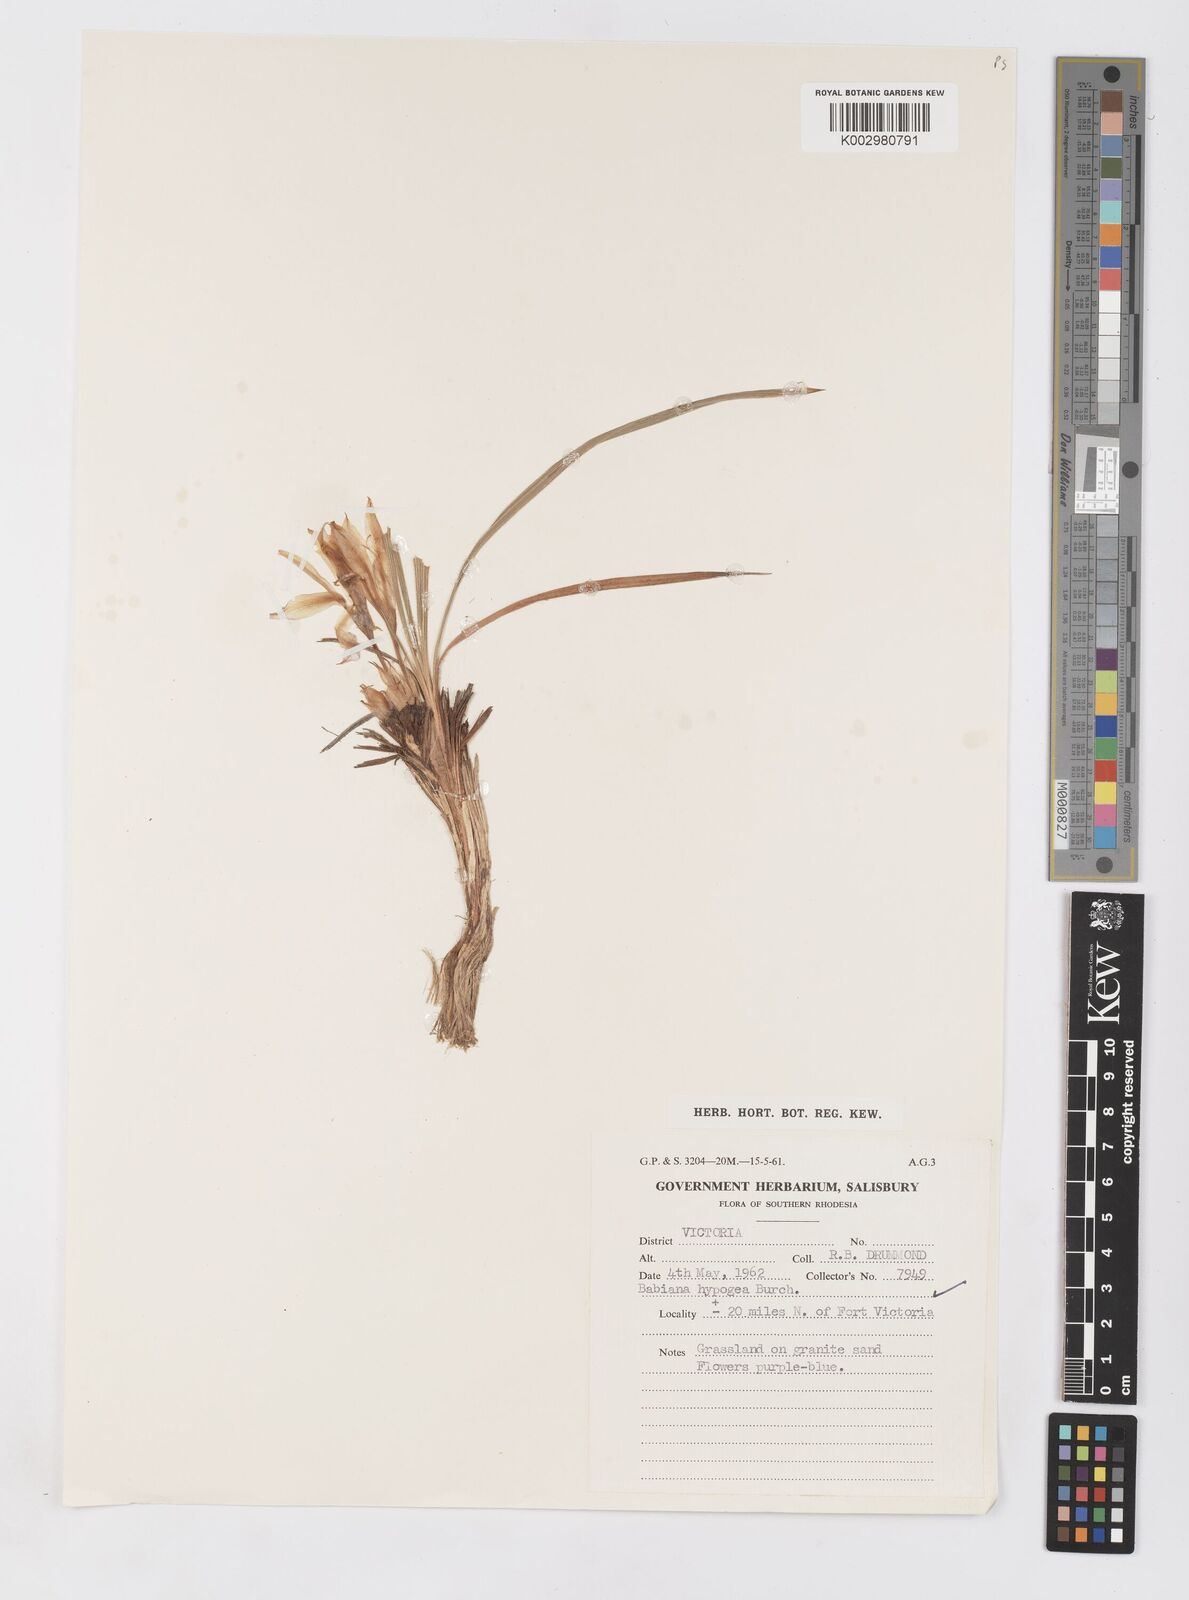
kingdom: Plantae
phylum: Tracheophyta
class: Liliopsida
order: Asparagales
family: Iridaceae
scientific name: Iridaceae
